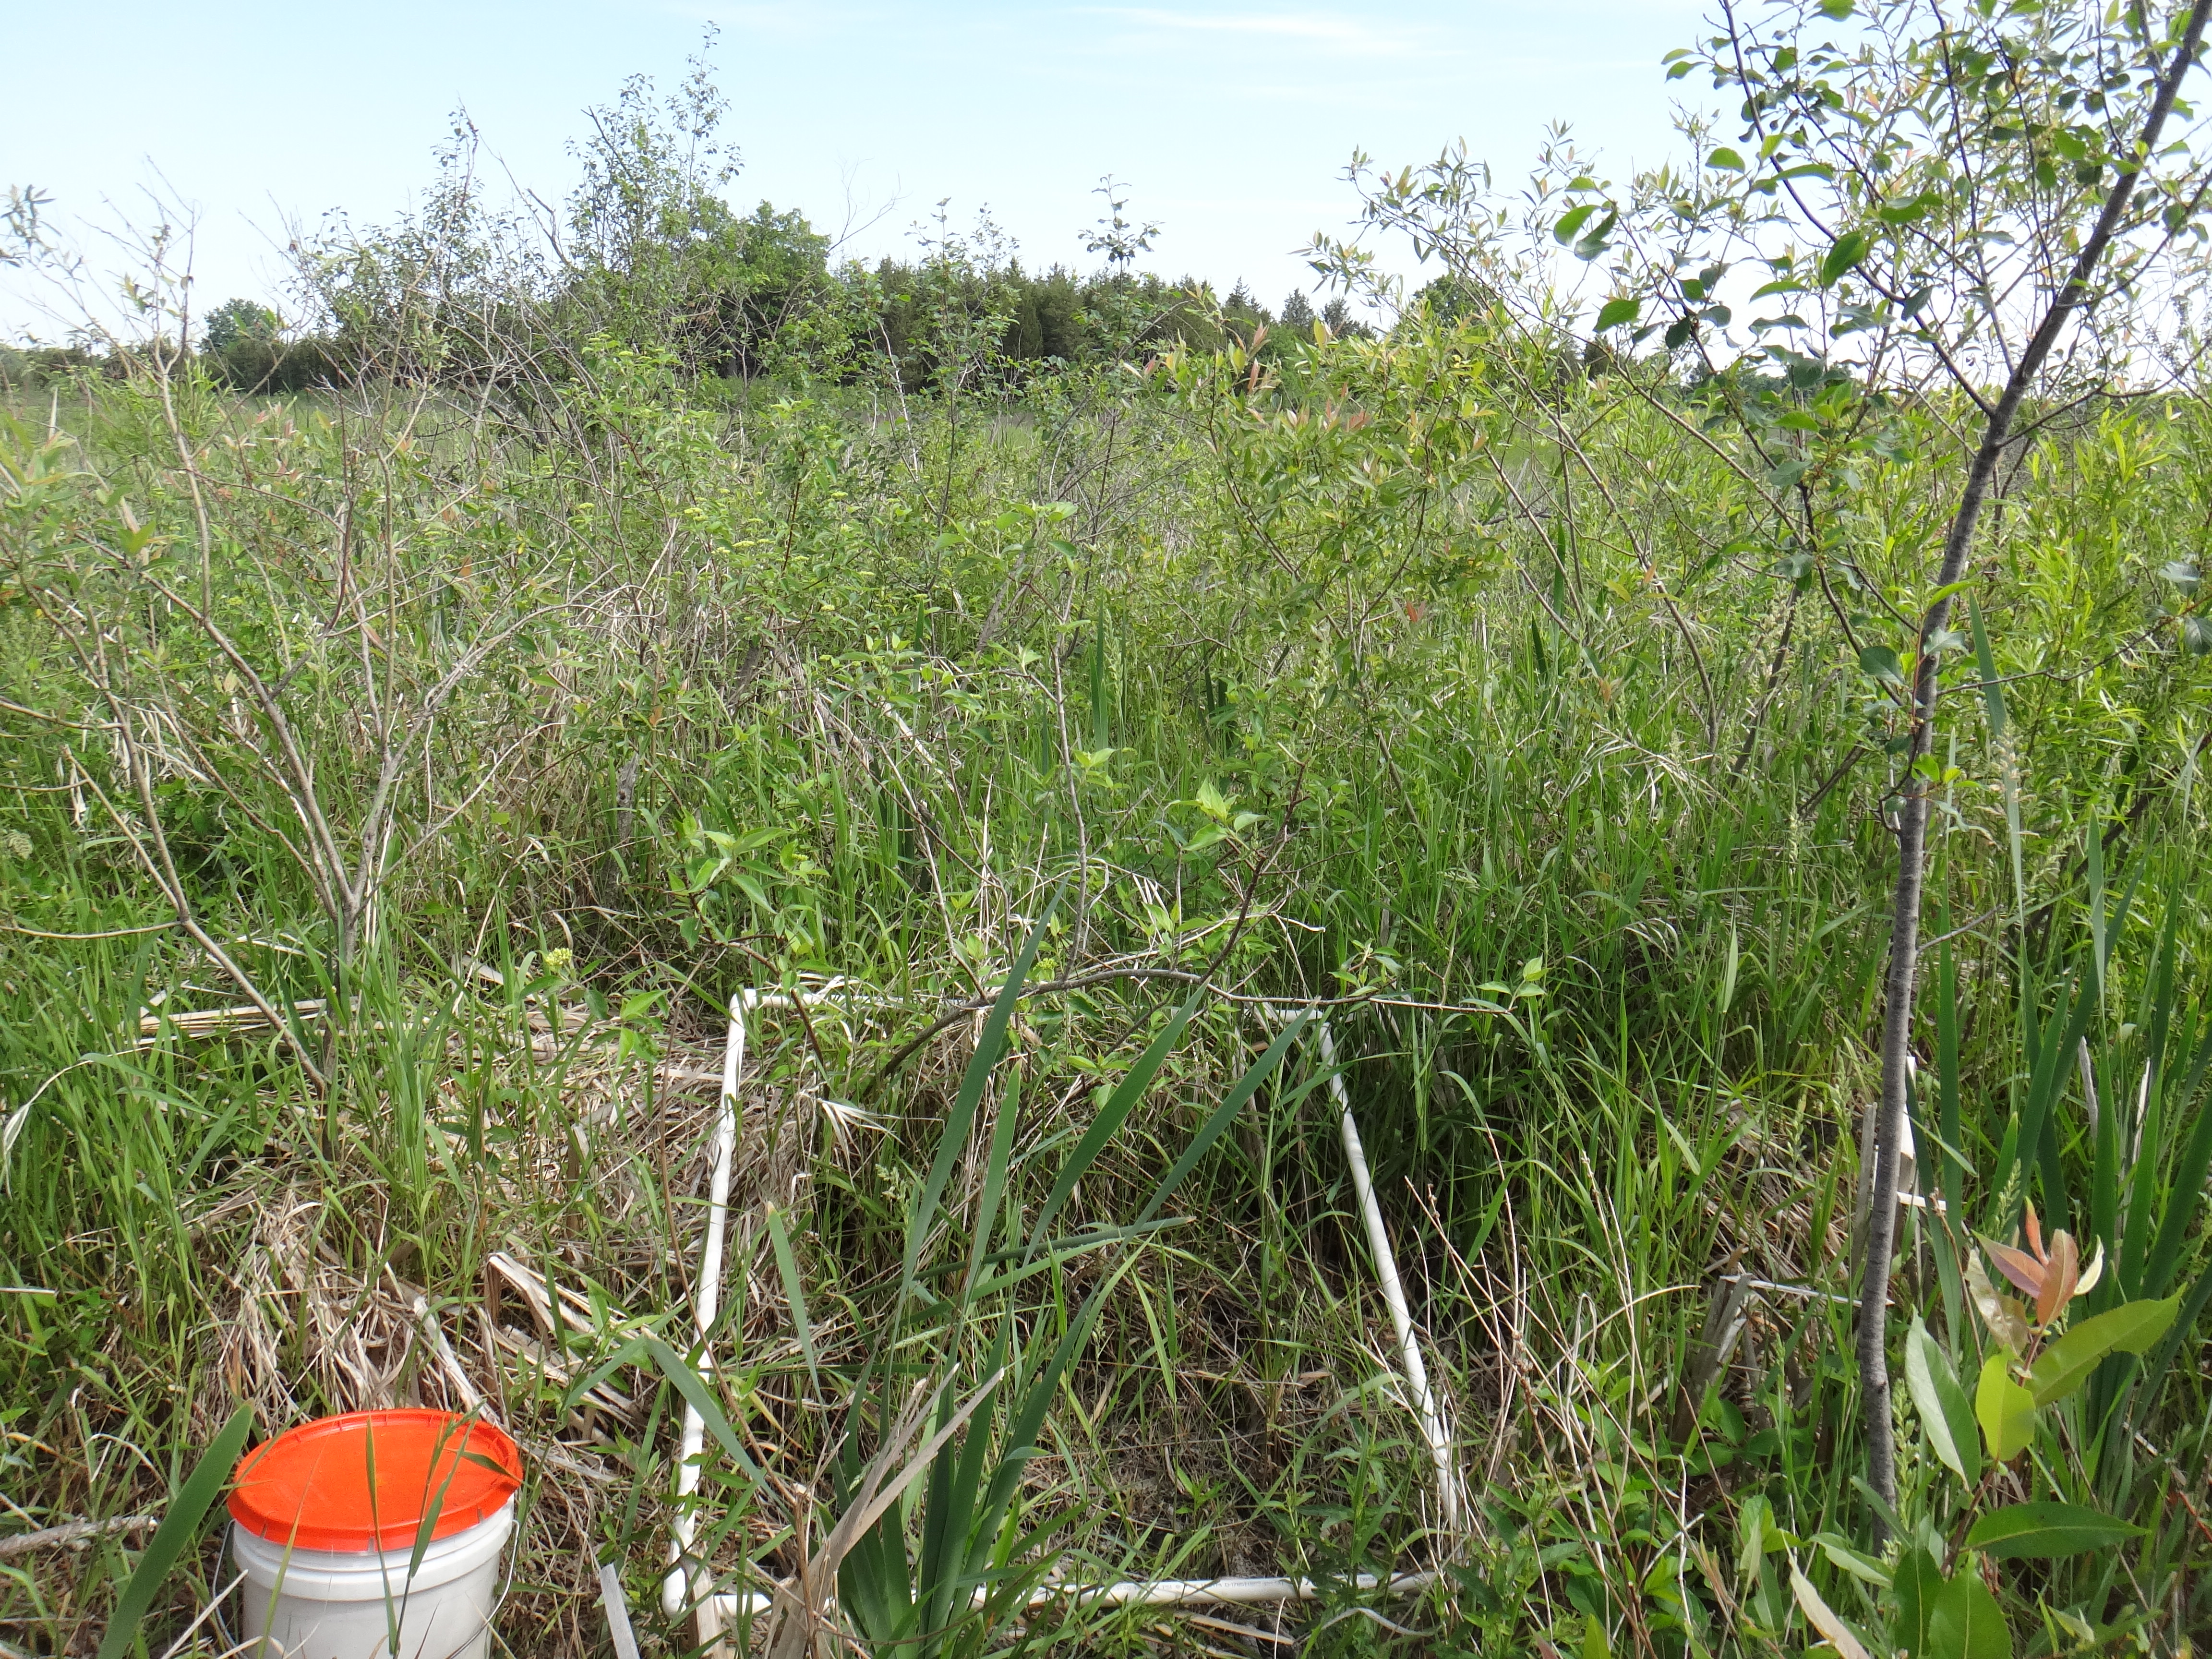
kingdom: Plantae
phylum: Tracheophyta
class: Magnoliopsida
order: Cornales
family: Cornaceae
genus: Cornus
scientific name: Cornus amomum
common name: Silky dogwood
